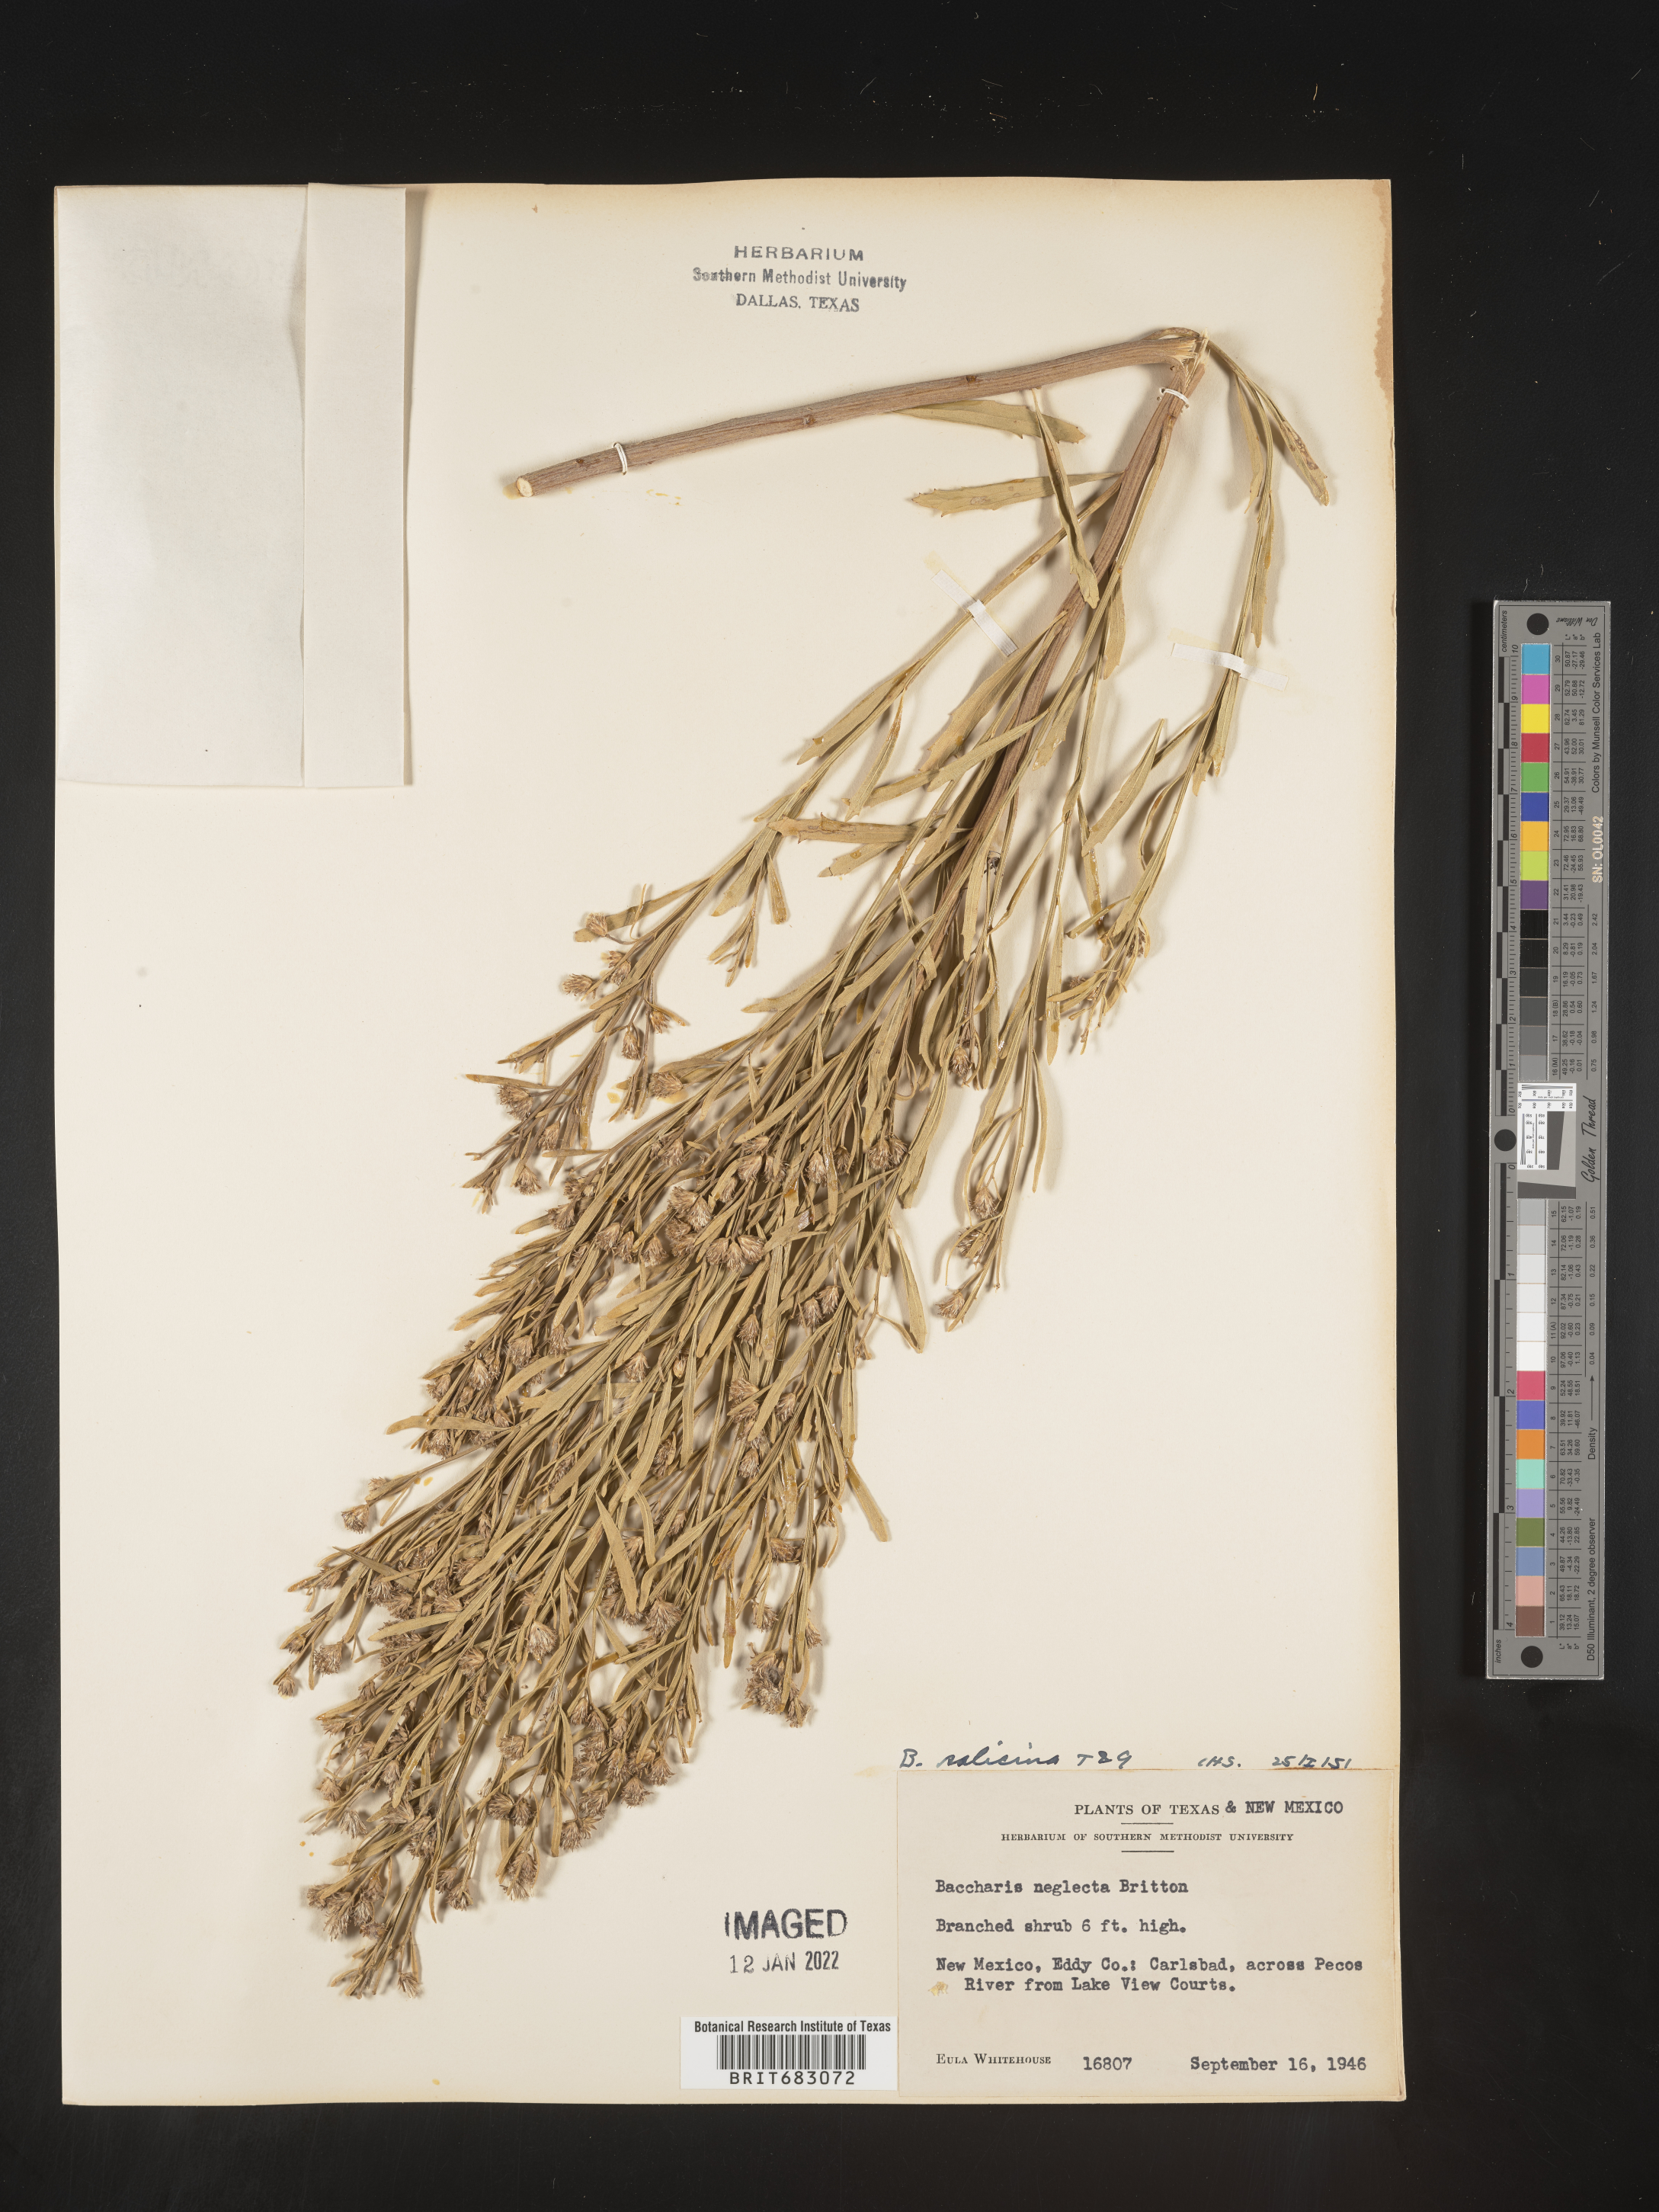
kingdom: Plantae
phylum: Tracheophyta
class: Magnoliopsida
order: Asterales
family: Asteraceae
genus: Baccharis
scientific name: Baccharis salicina
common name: Willow baccharis
